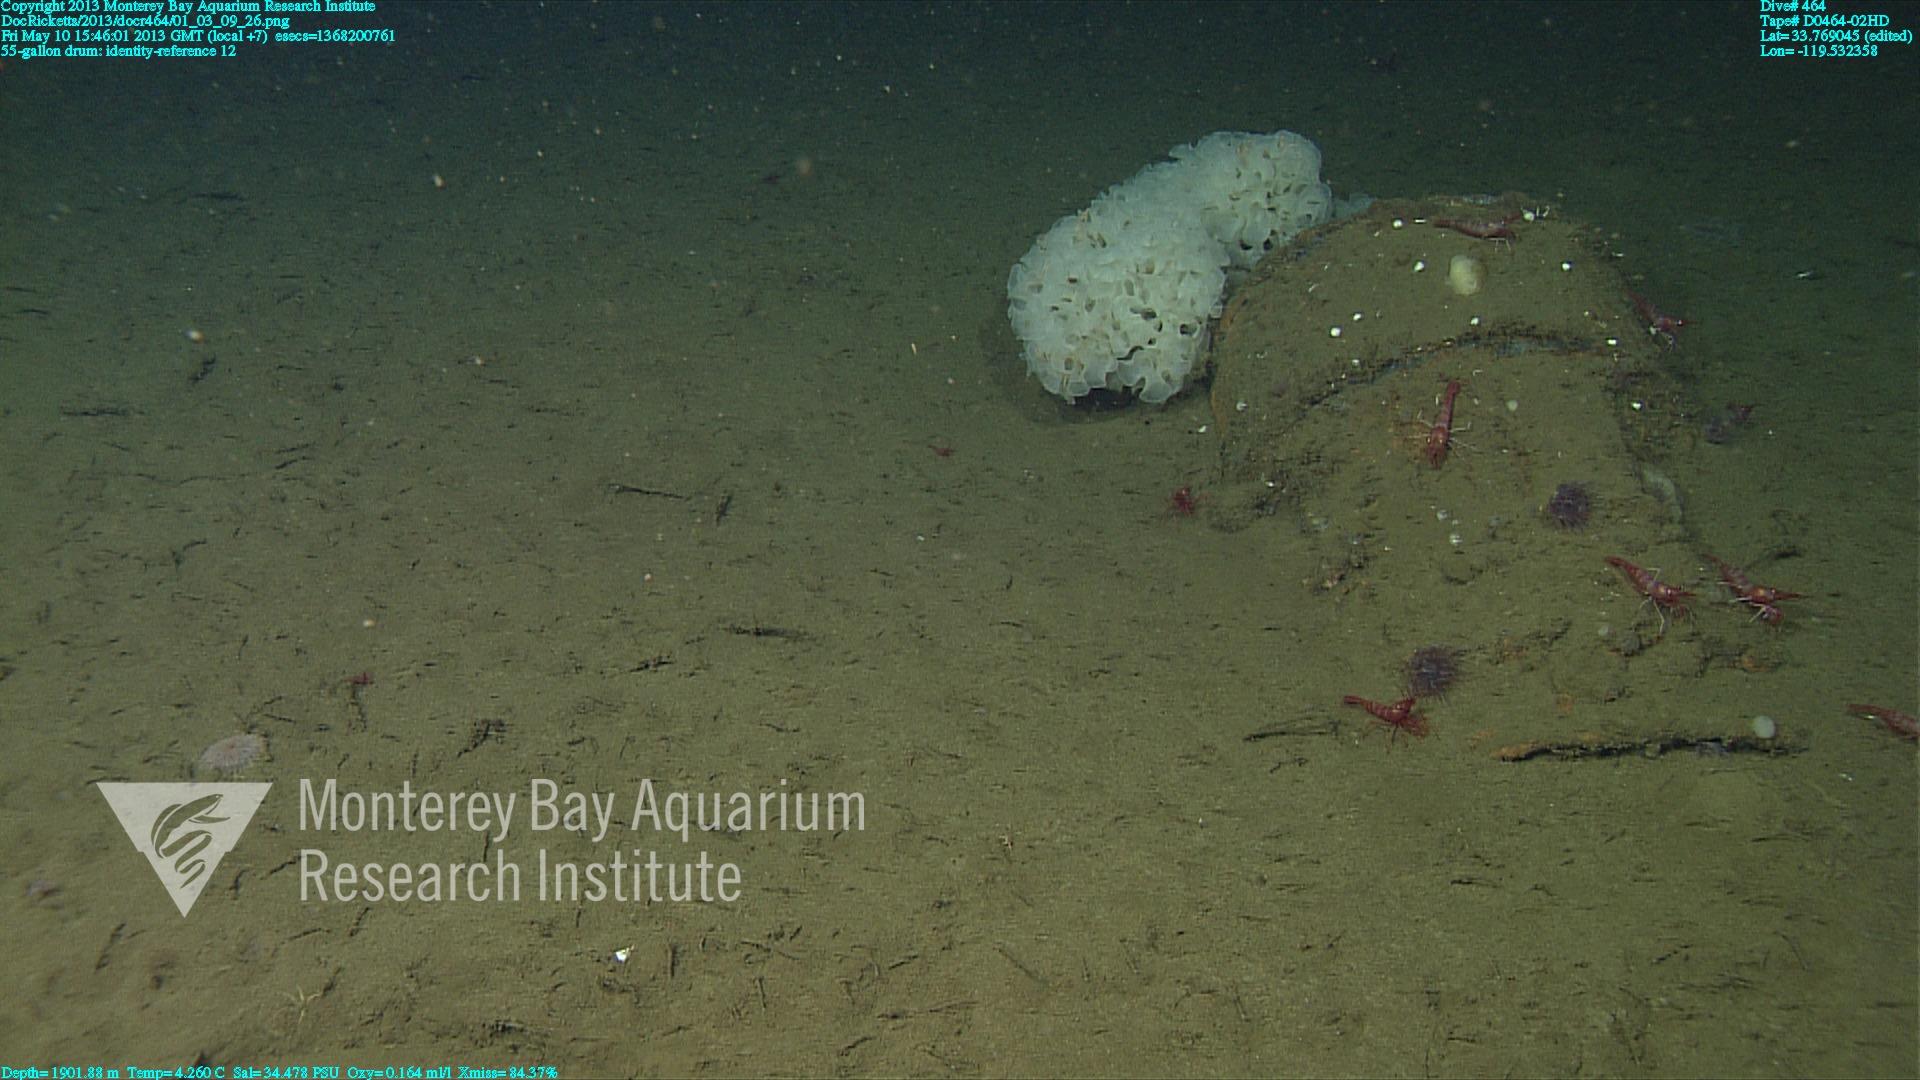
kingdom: Animalia
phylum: Porifera
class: Hexactinellida
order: Sceptrulophora
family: Farreidae
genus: Farrea
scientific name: Farrea
